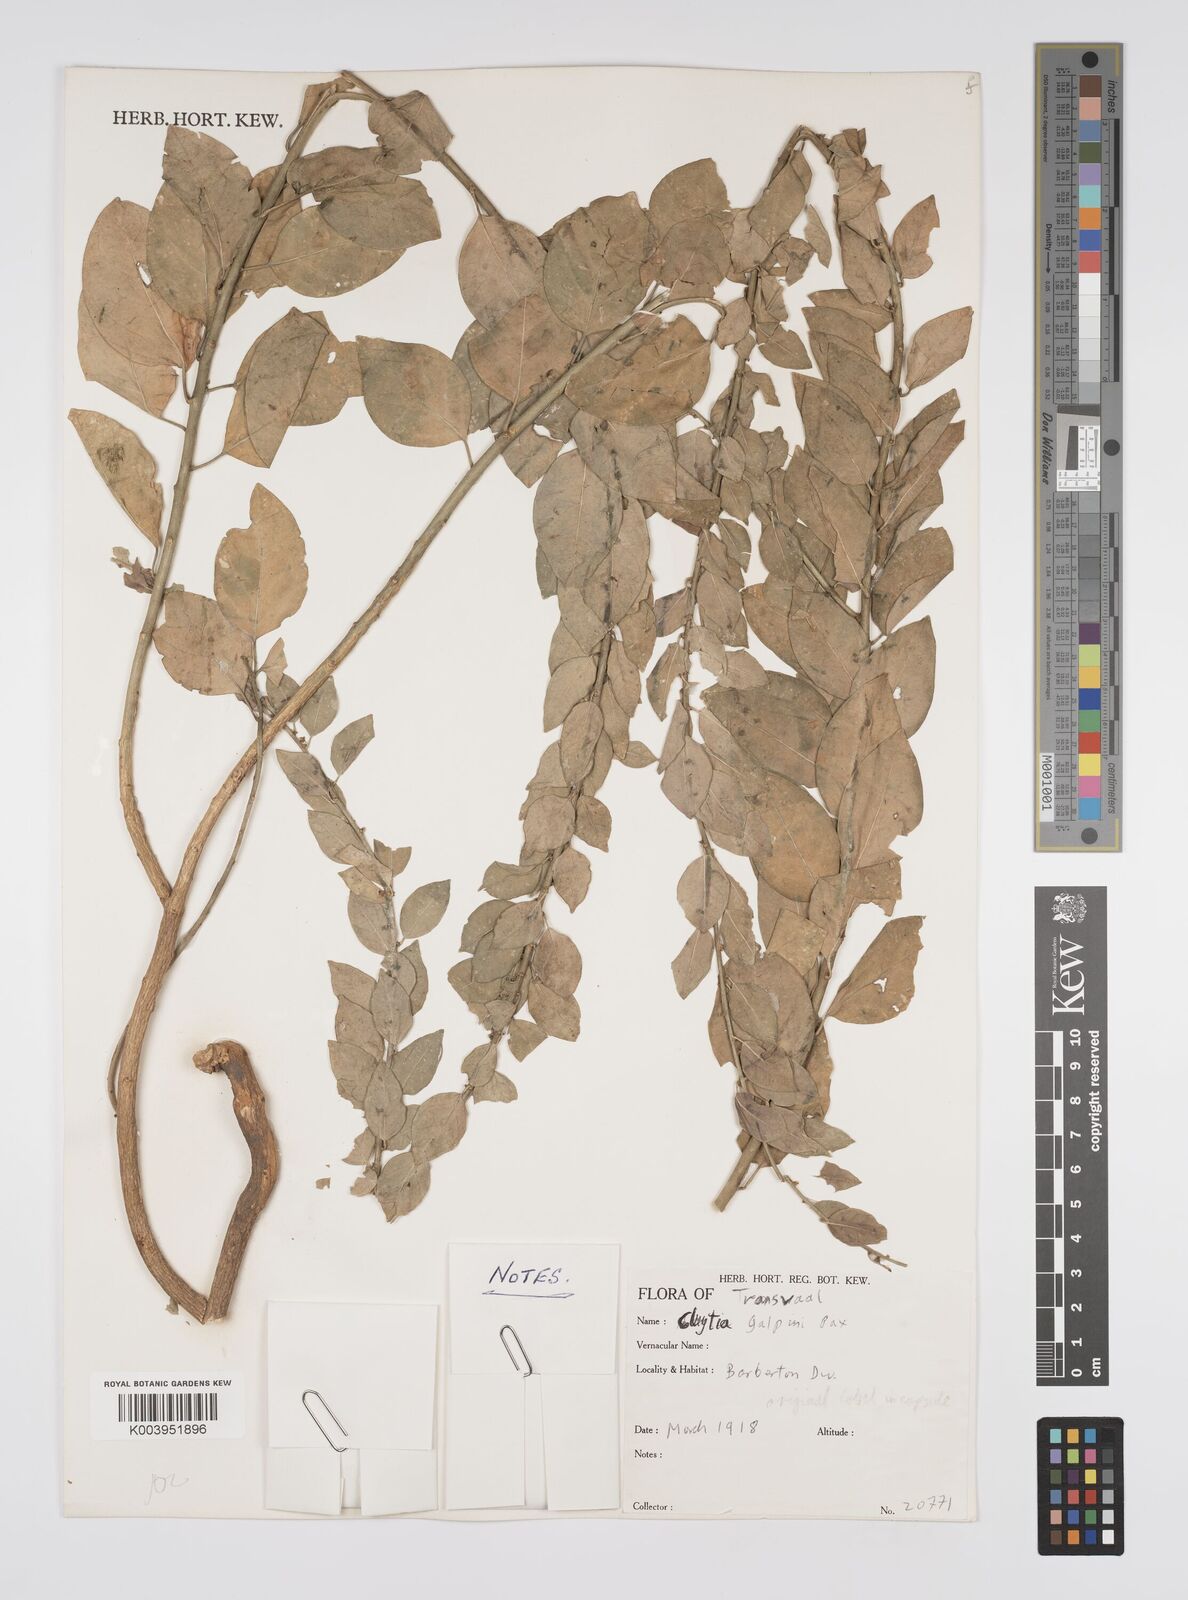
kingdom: Plantae
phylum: Tracheophyta
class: Magnoliopsida
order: Malpighiales
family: Peraceae
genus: Clutia
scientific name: Clutia galpinii
